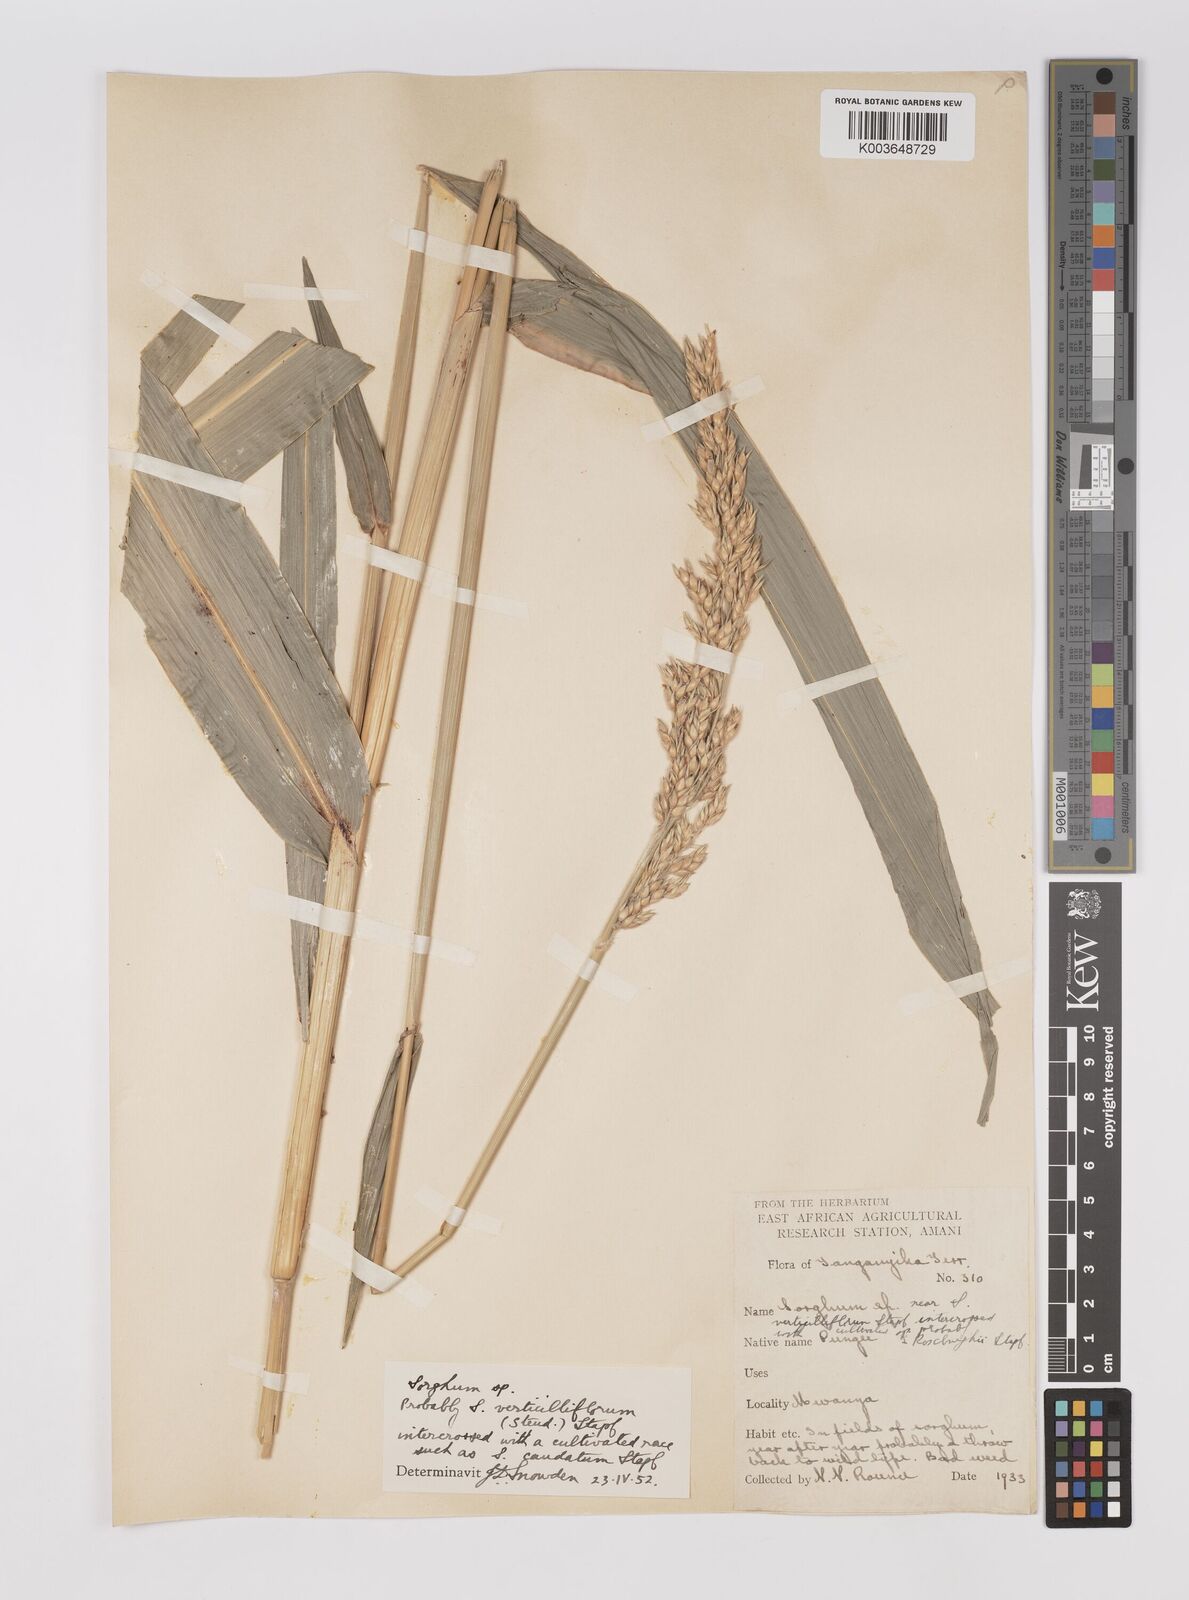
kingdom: Plantae
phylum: Tracheophyta
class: Liliopsida
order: Poales
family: Poaceae
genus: Sorghum
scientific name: Sorghum drummondii
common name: Sudangrass
